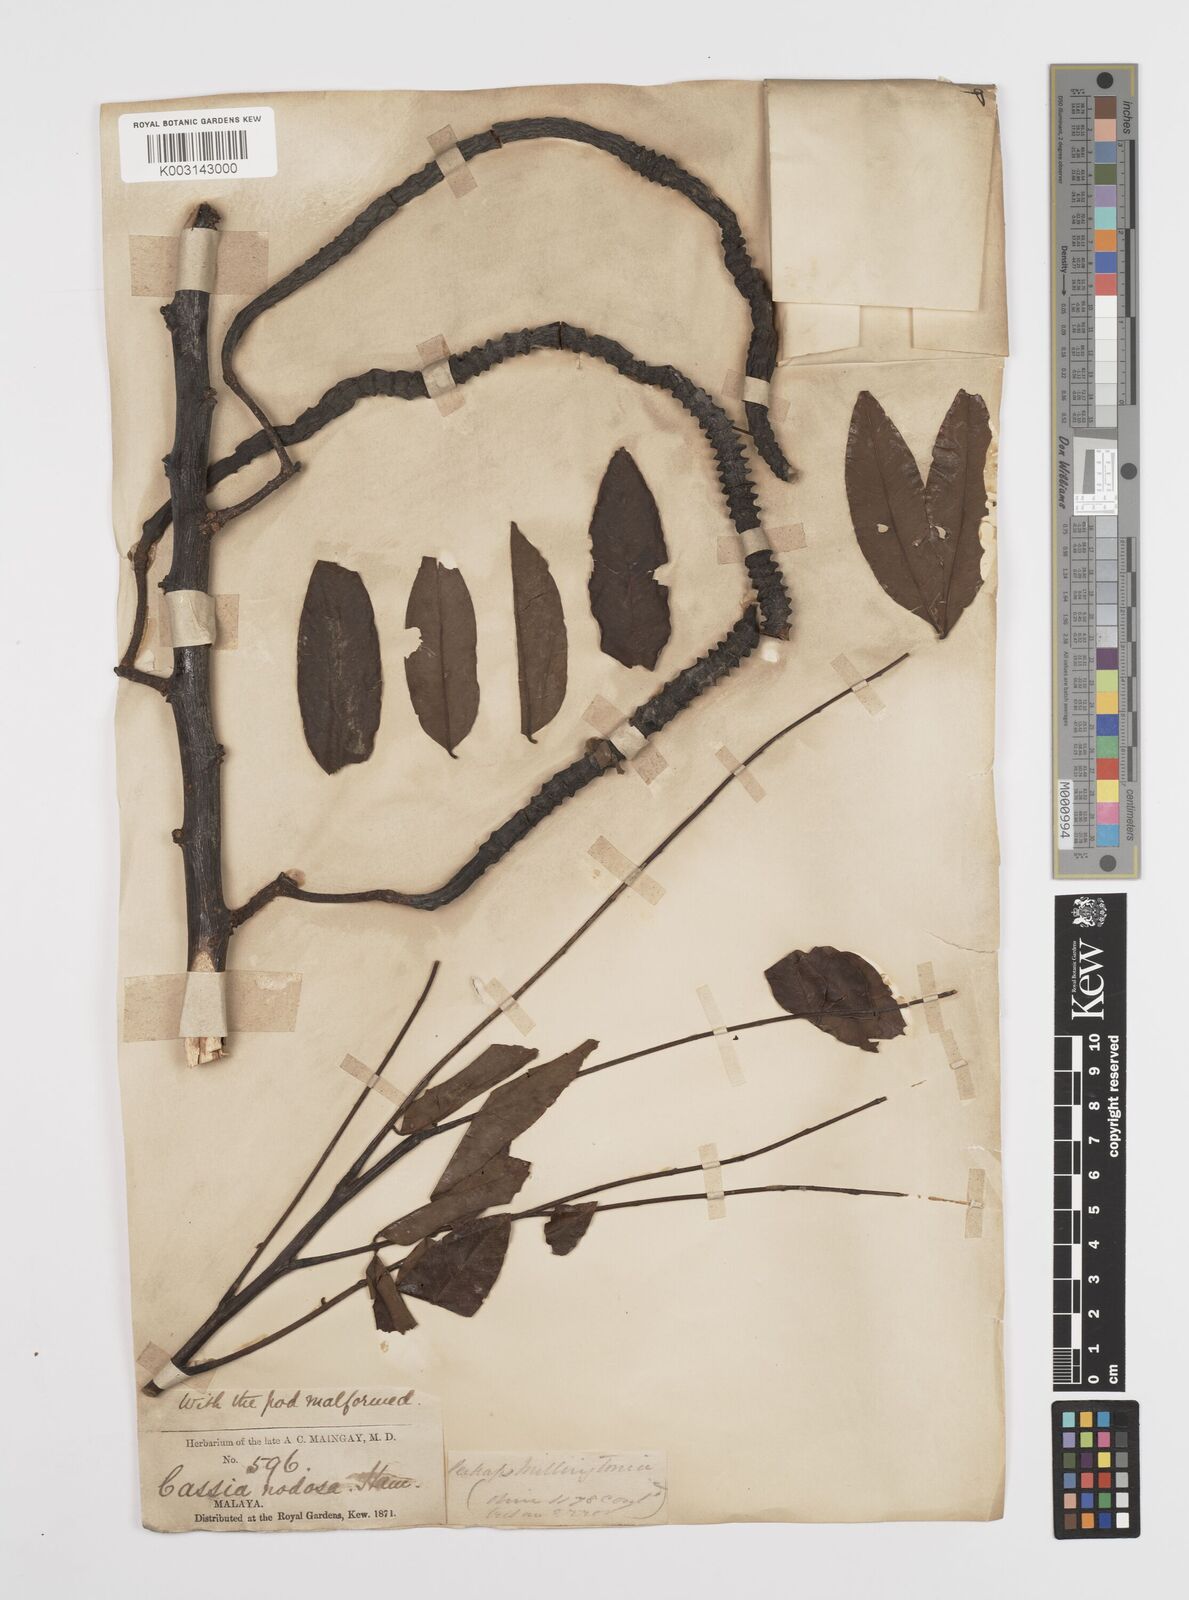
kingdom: Plantae
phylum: Tracheophyta
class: Magnoliopsida
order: Fabales
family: Fabaceae
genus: Cassia
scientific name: Cassia javanica
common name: Apple blossom
